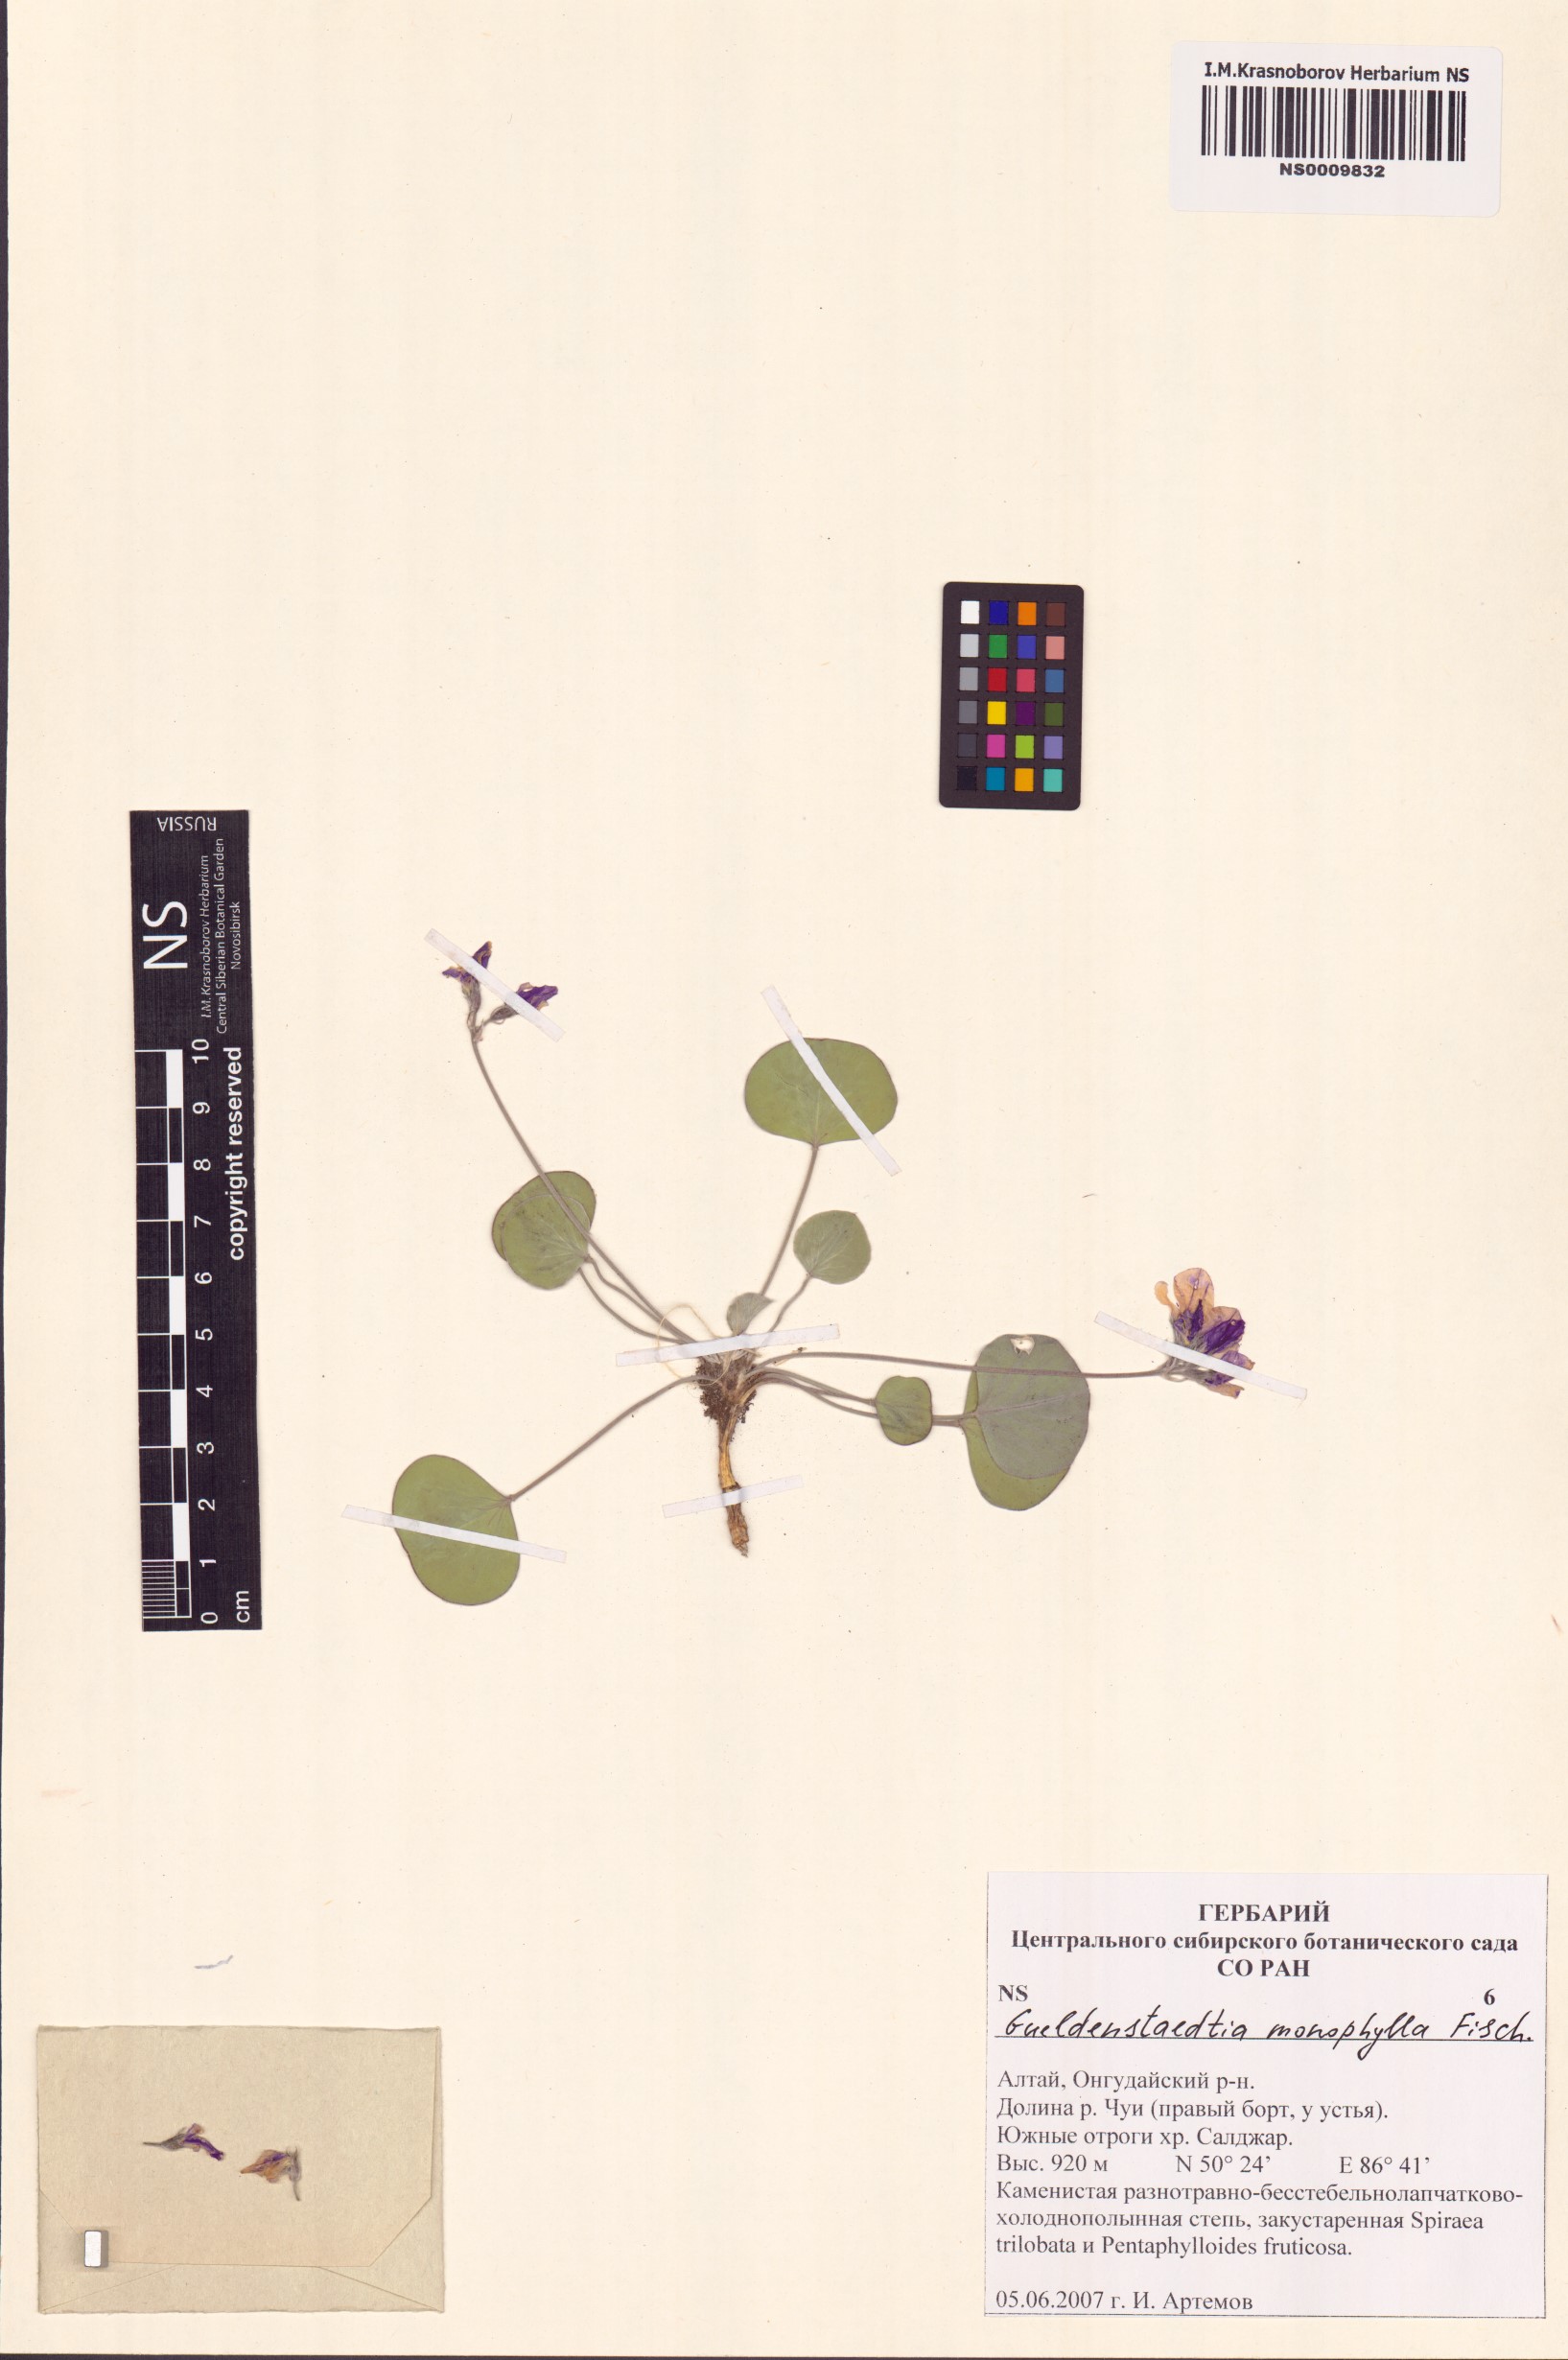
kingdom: Plantae
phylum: Tracheophyta
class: Magnoliopsida
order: Fabales
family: Fabaceae
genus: Gueldenstaedtia
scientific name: Gueldenstaedtia monophylla
